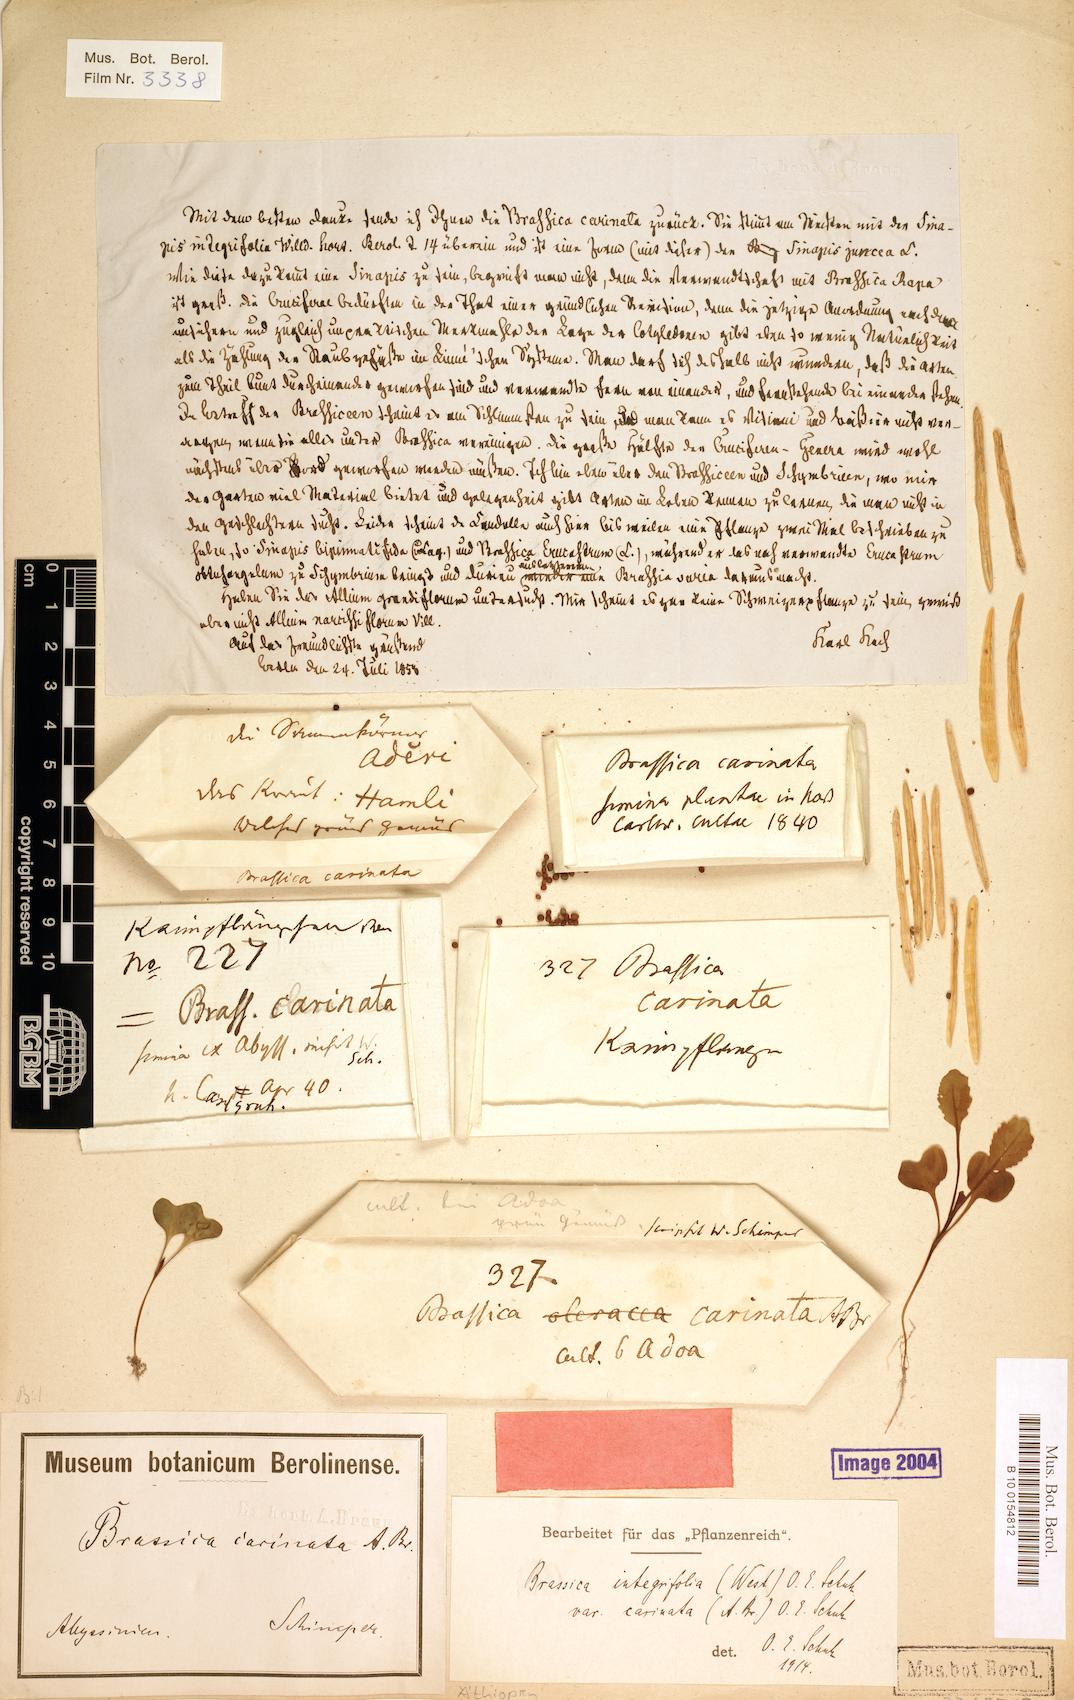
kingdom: Plantae
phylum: Tracheophyta
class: Magnoliopsida
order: Brassicales
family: Brassicaceae
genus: Brassica
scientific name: Brassica carinata
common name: Ethiopian rape
